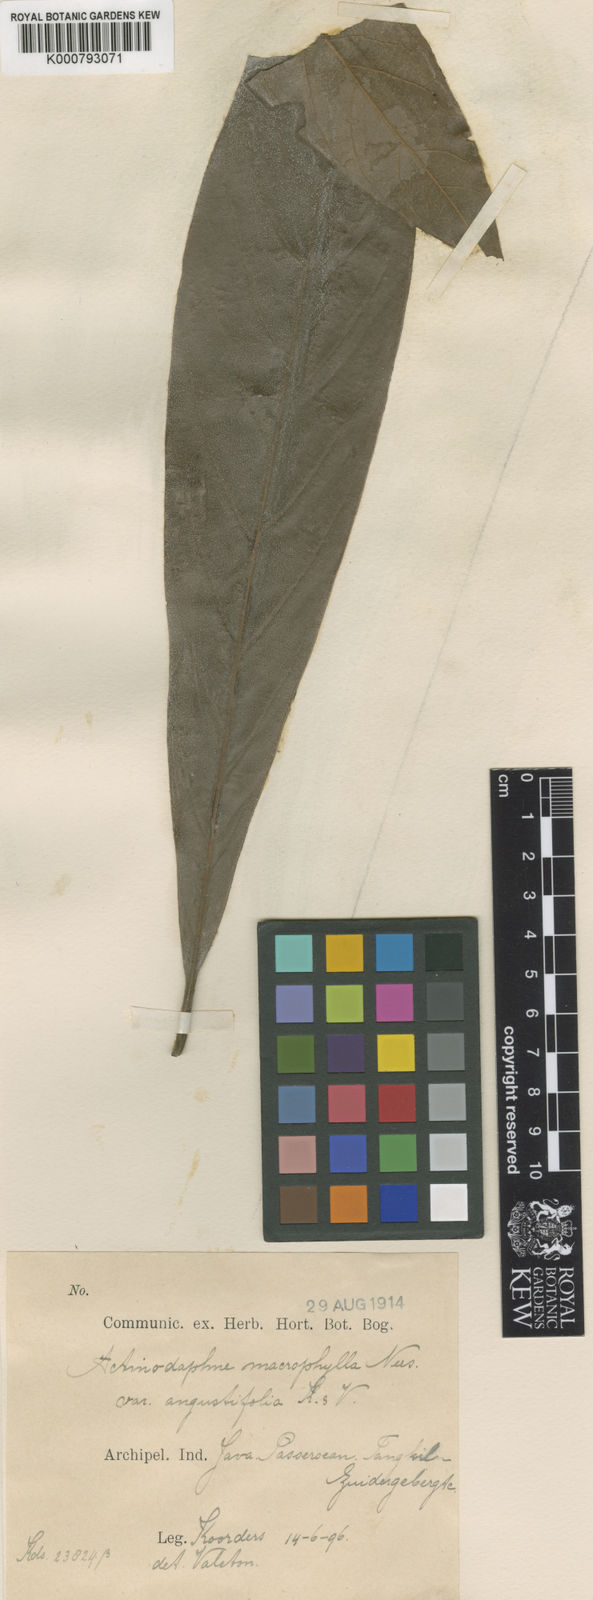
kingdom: Plantae
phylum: Tracheophyta
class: Magnoliopsida
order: Laurales
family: Lauraceae
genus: Actinodaphne
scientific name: Actinodaphne macrophylla
